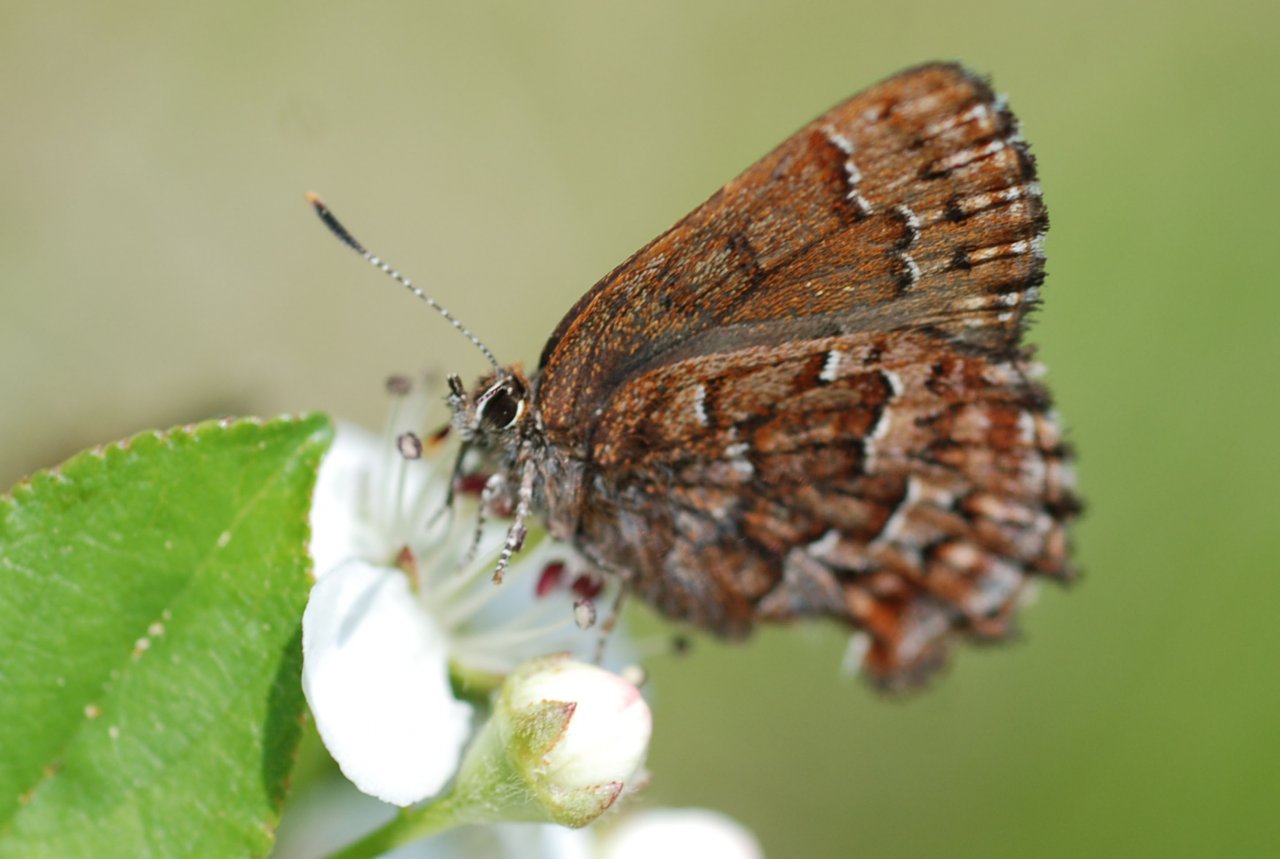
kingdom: Animalia
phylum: Arthropoda
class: Insecta
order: Lepidoptera
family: Lycaenidae
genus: Incisalia
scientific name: Incisalia niphon
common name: Eastern Pine Elfin
